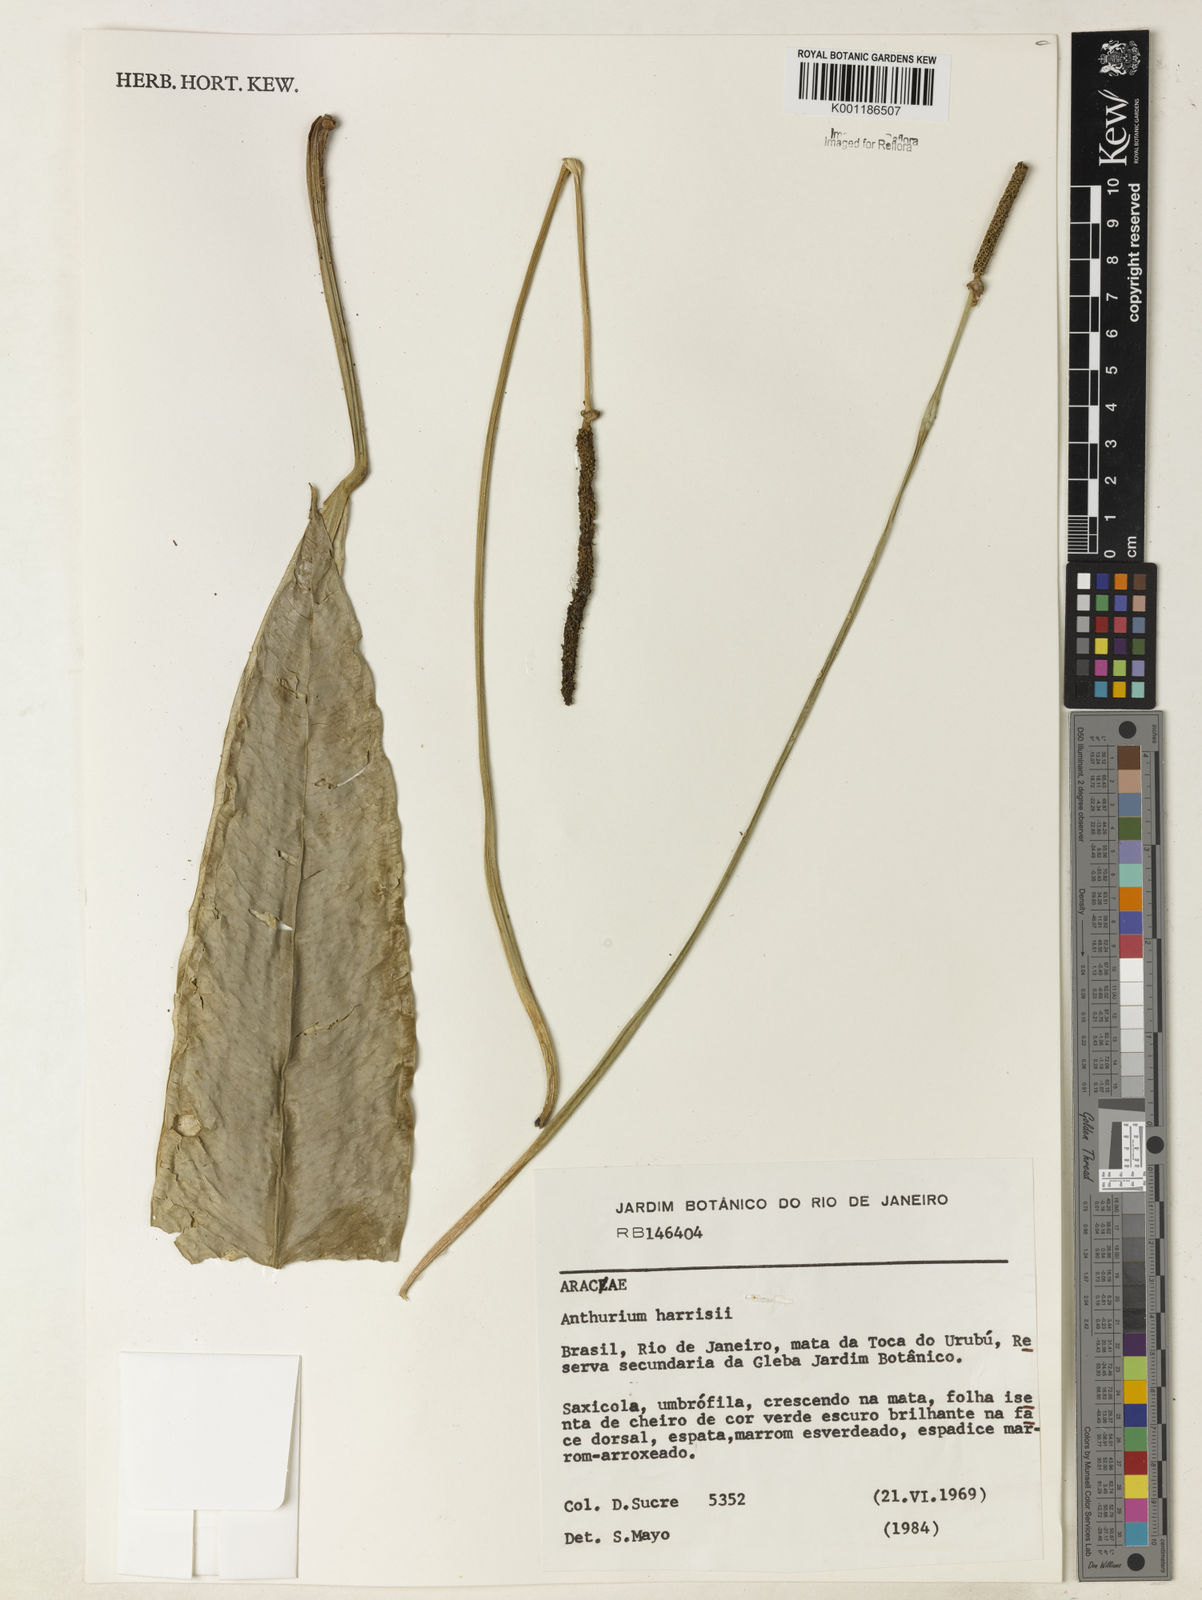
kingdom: Plantae
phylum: Tracheophyta
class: Liliopsida
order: Alismatales
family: Araceae
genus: Anthurium
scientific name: Anthurium harrisii
